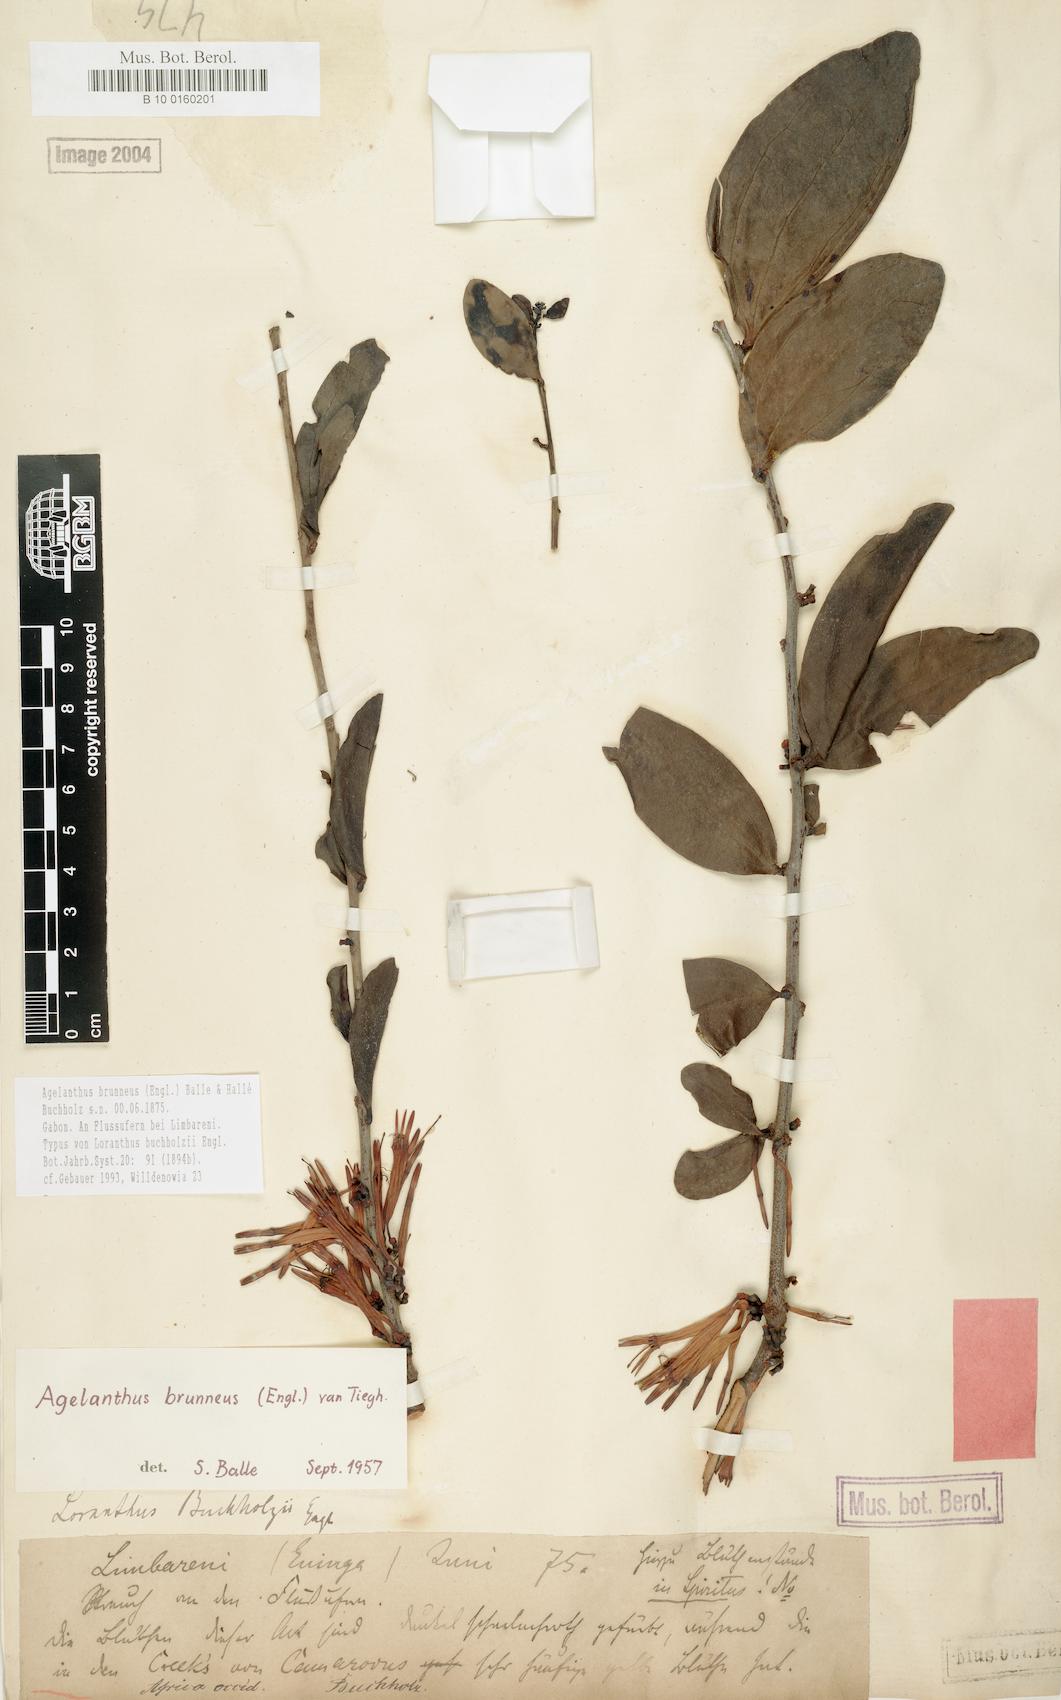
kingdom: Plantae
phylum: Tracheophyta
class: Magnoliopsida
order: Santalales
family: Loranthaceae
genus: Agelanthus
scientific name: Agelanthus brunneus
